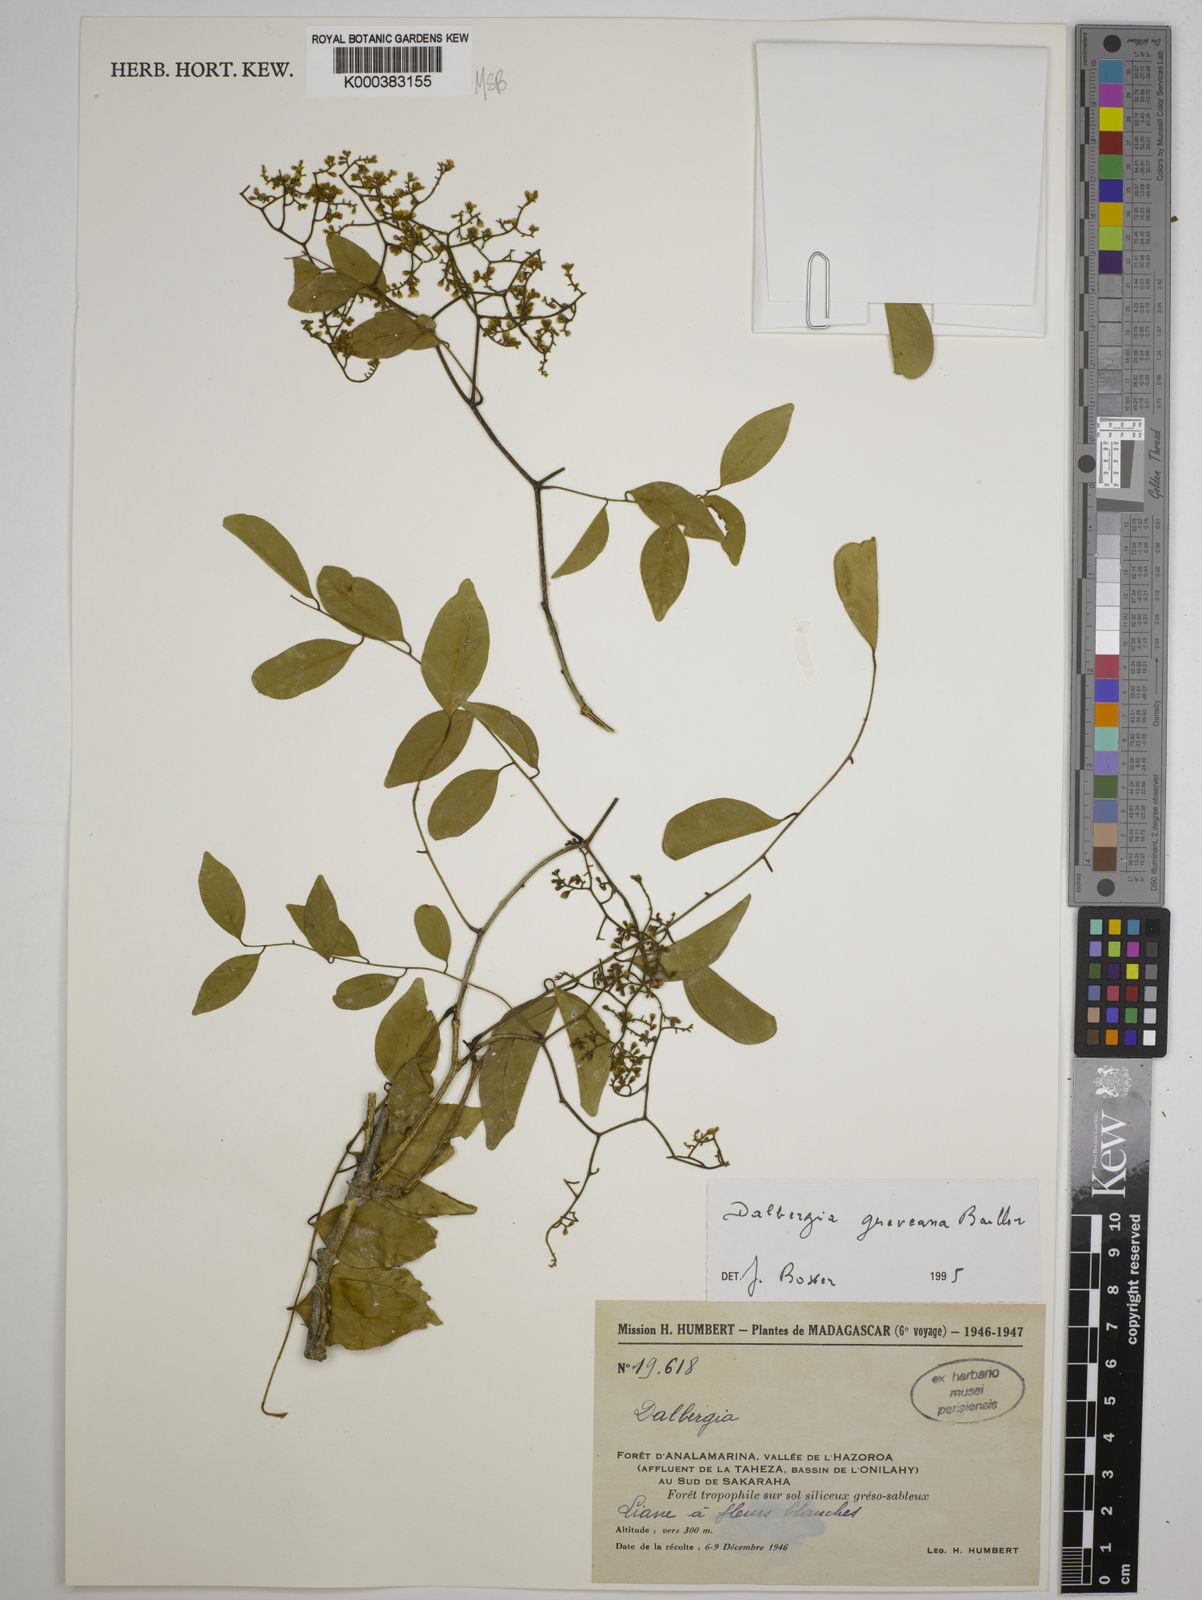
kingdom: Plantae
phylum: Tracheophyta
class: Magnoliopsida
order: Fabales
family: Fabaceae
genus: Dalbergia
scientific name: Dalbergia greveana
